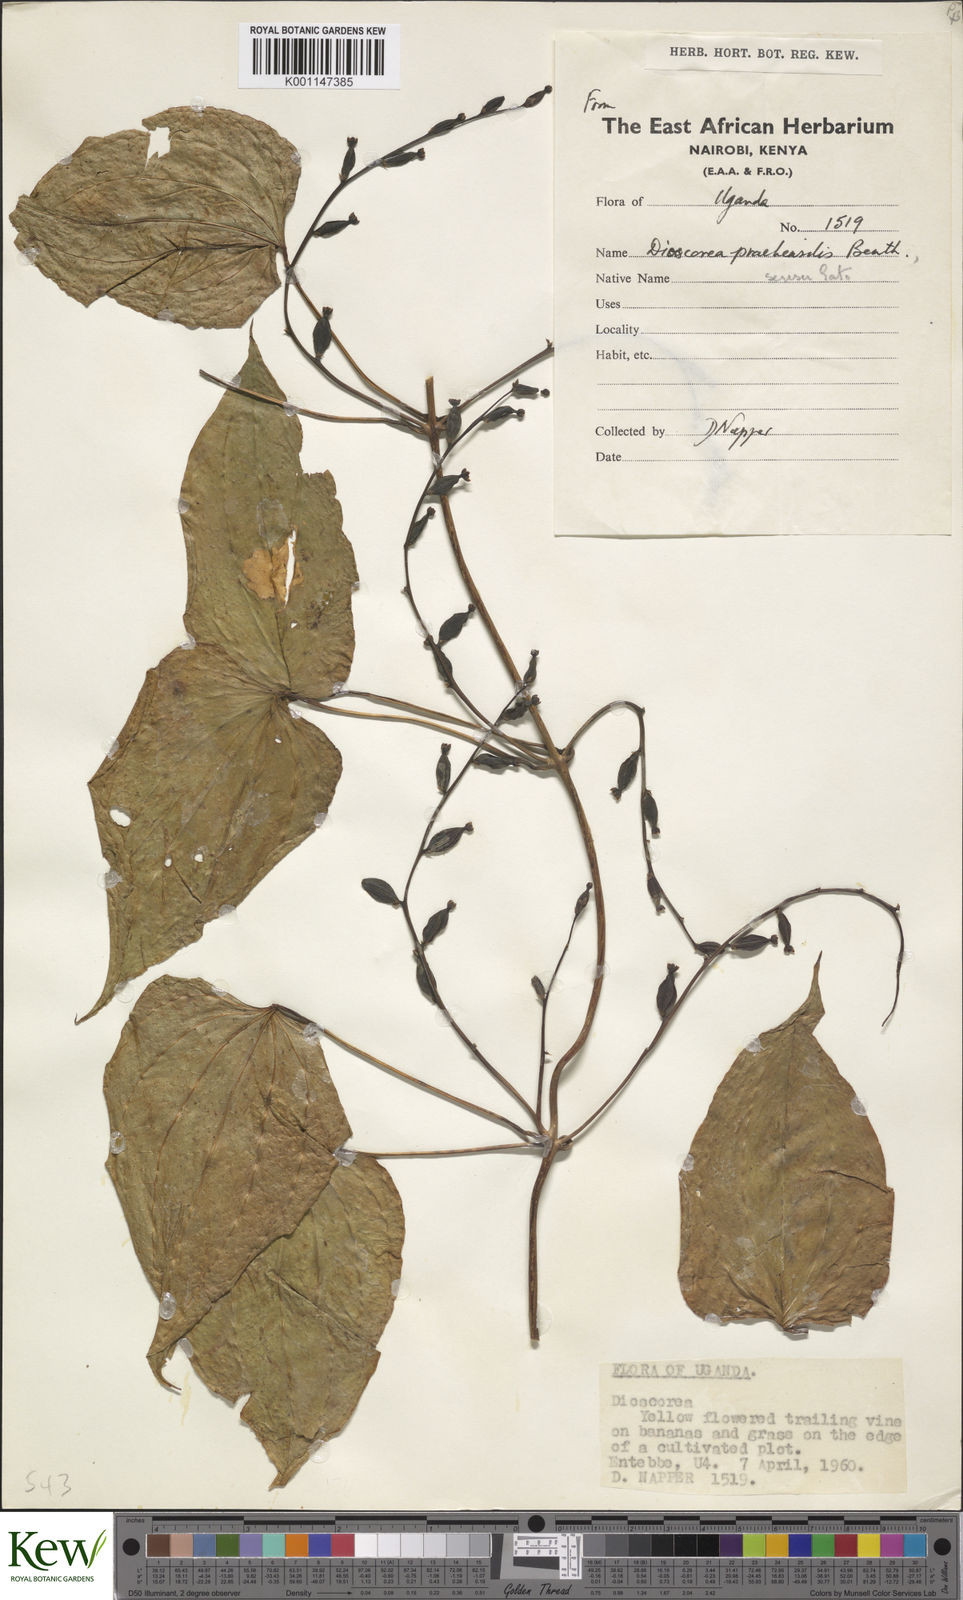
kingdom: Plantae
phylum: Tracheophyta
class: Liliopsida
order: Dioscoreales
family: Dioscoreaceae
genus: Dioscorea
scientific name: Dioscorea praehensilis
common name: Bush yam
